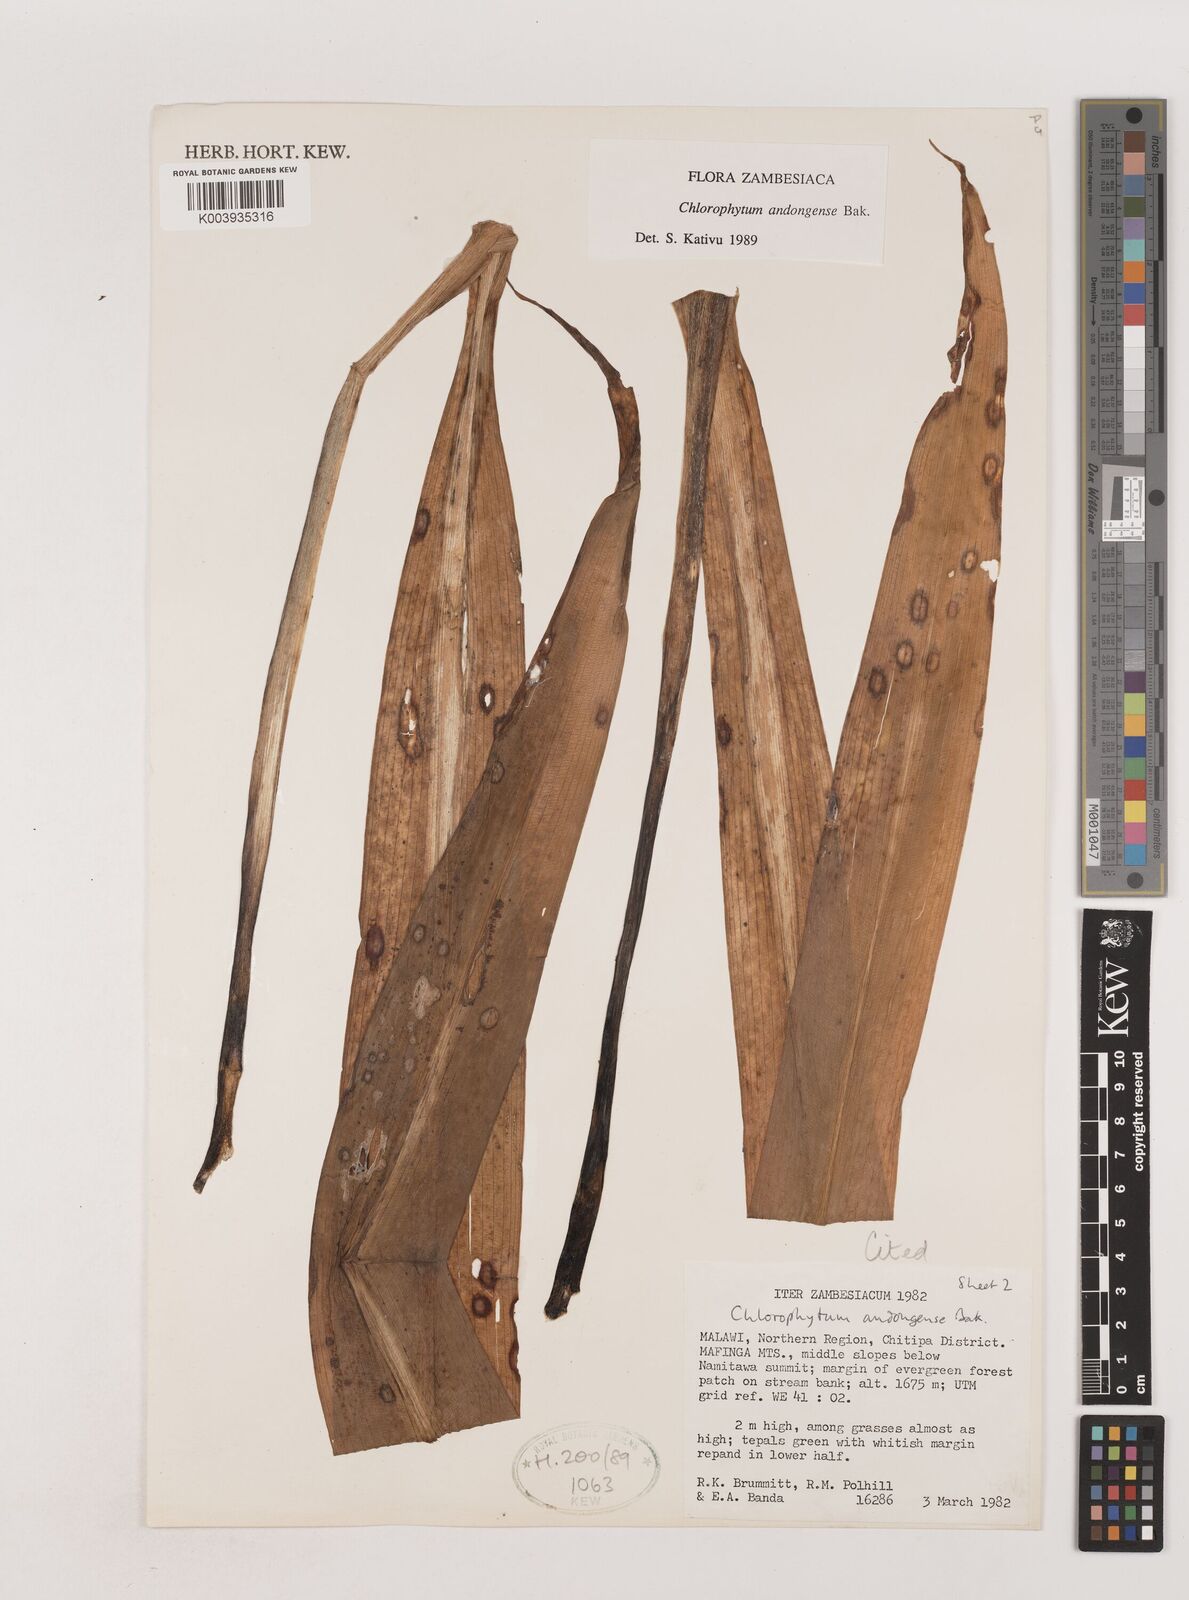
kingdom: Plantae
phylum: Tracheophyta
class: Liliopsida
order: Asparagales
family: Asparagaceae
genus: Chlorophytum
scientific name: Chlorophytum andongense
